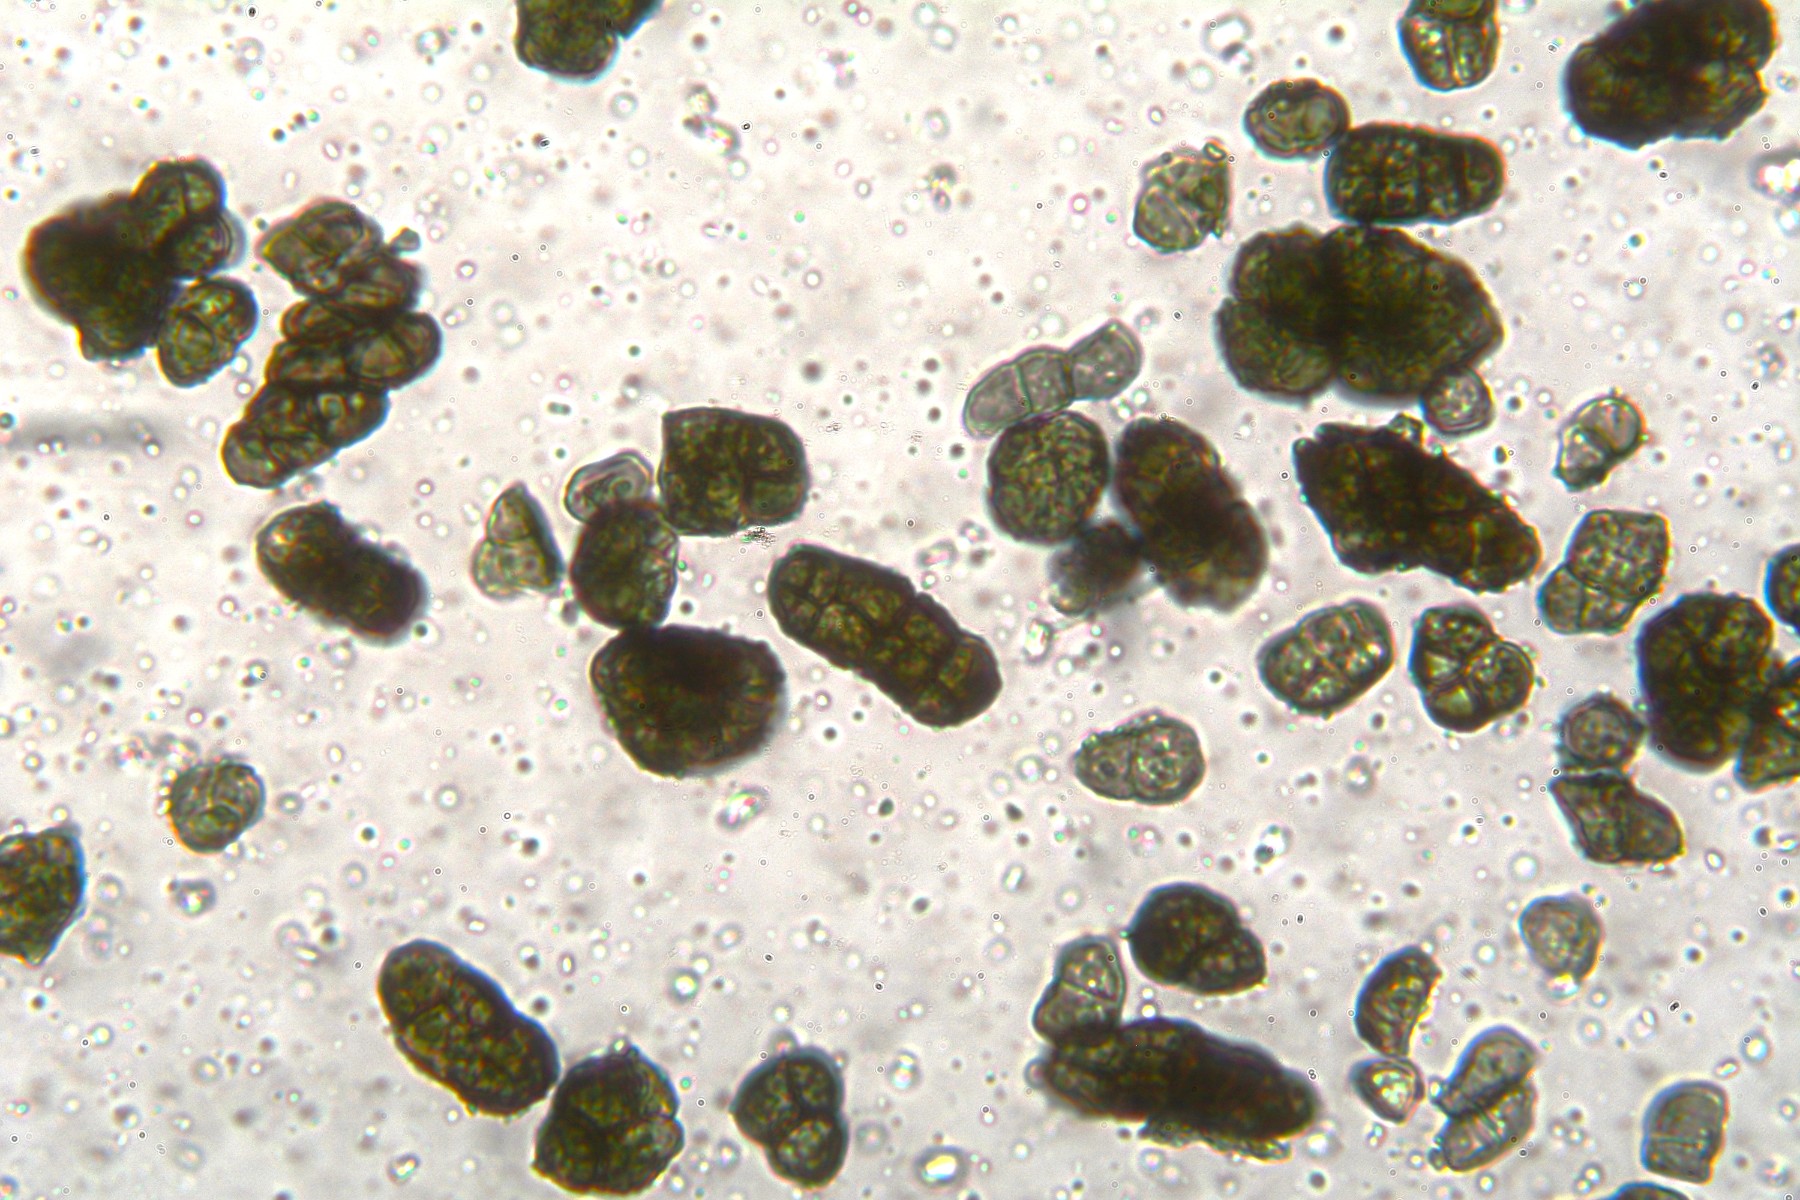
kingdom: Fungi
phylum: Ascomycota
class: Leotiomycetes
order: Helotiales
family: Mollisiaceae
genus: Trimmatostroma
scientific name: Trimmatostroma betulinum
